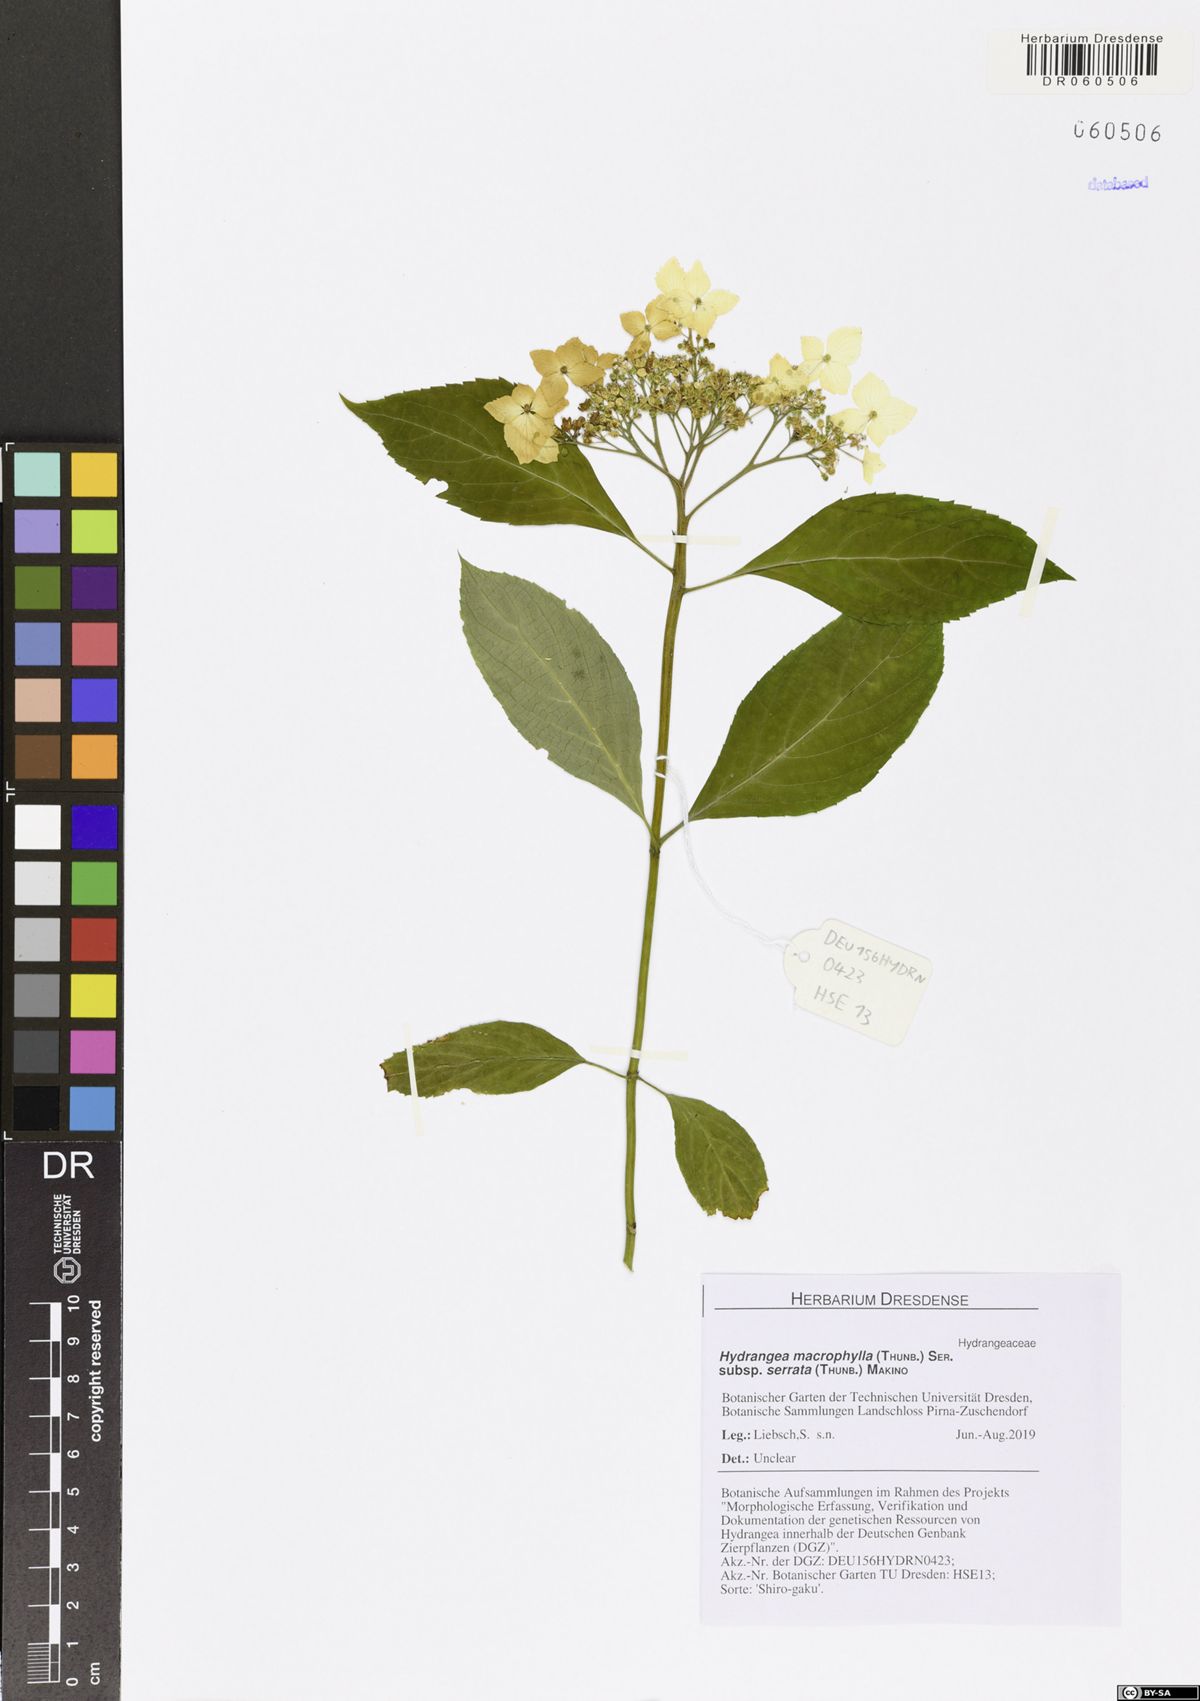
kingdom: Plantae
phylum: Tracheophyta
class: Magnoliopsida
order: Cornales
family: Hydrangeaceae
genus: Hydrangea
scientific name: Hydrangea serrata
